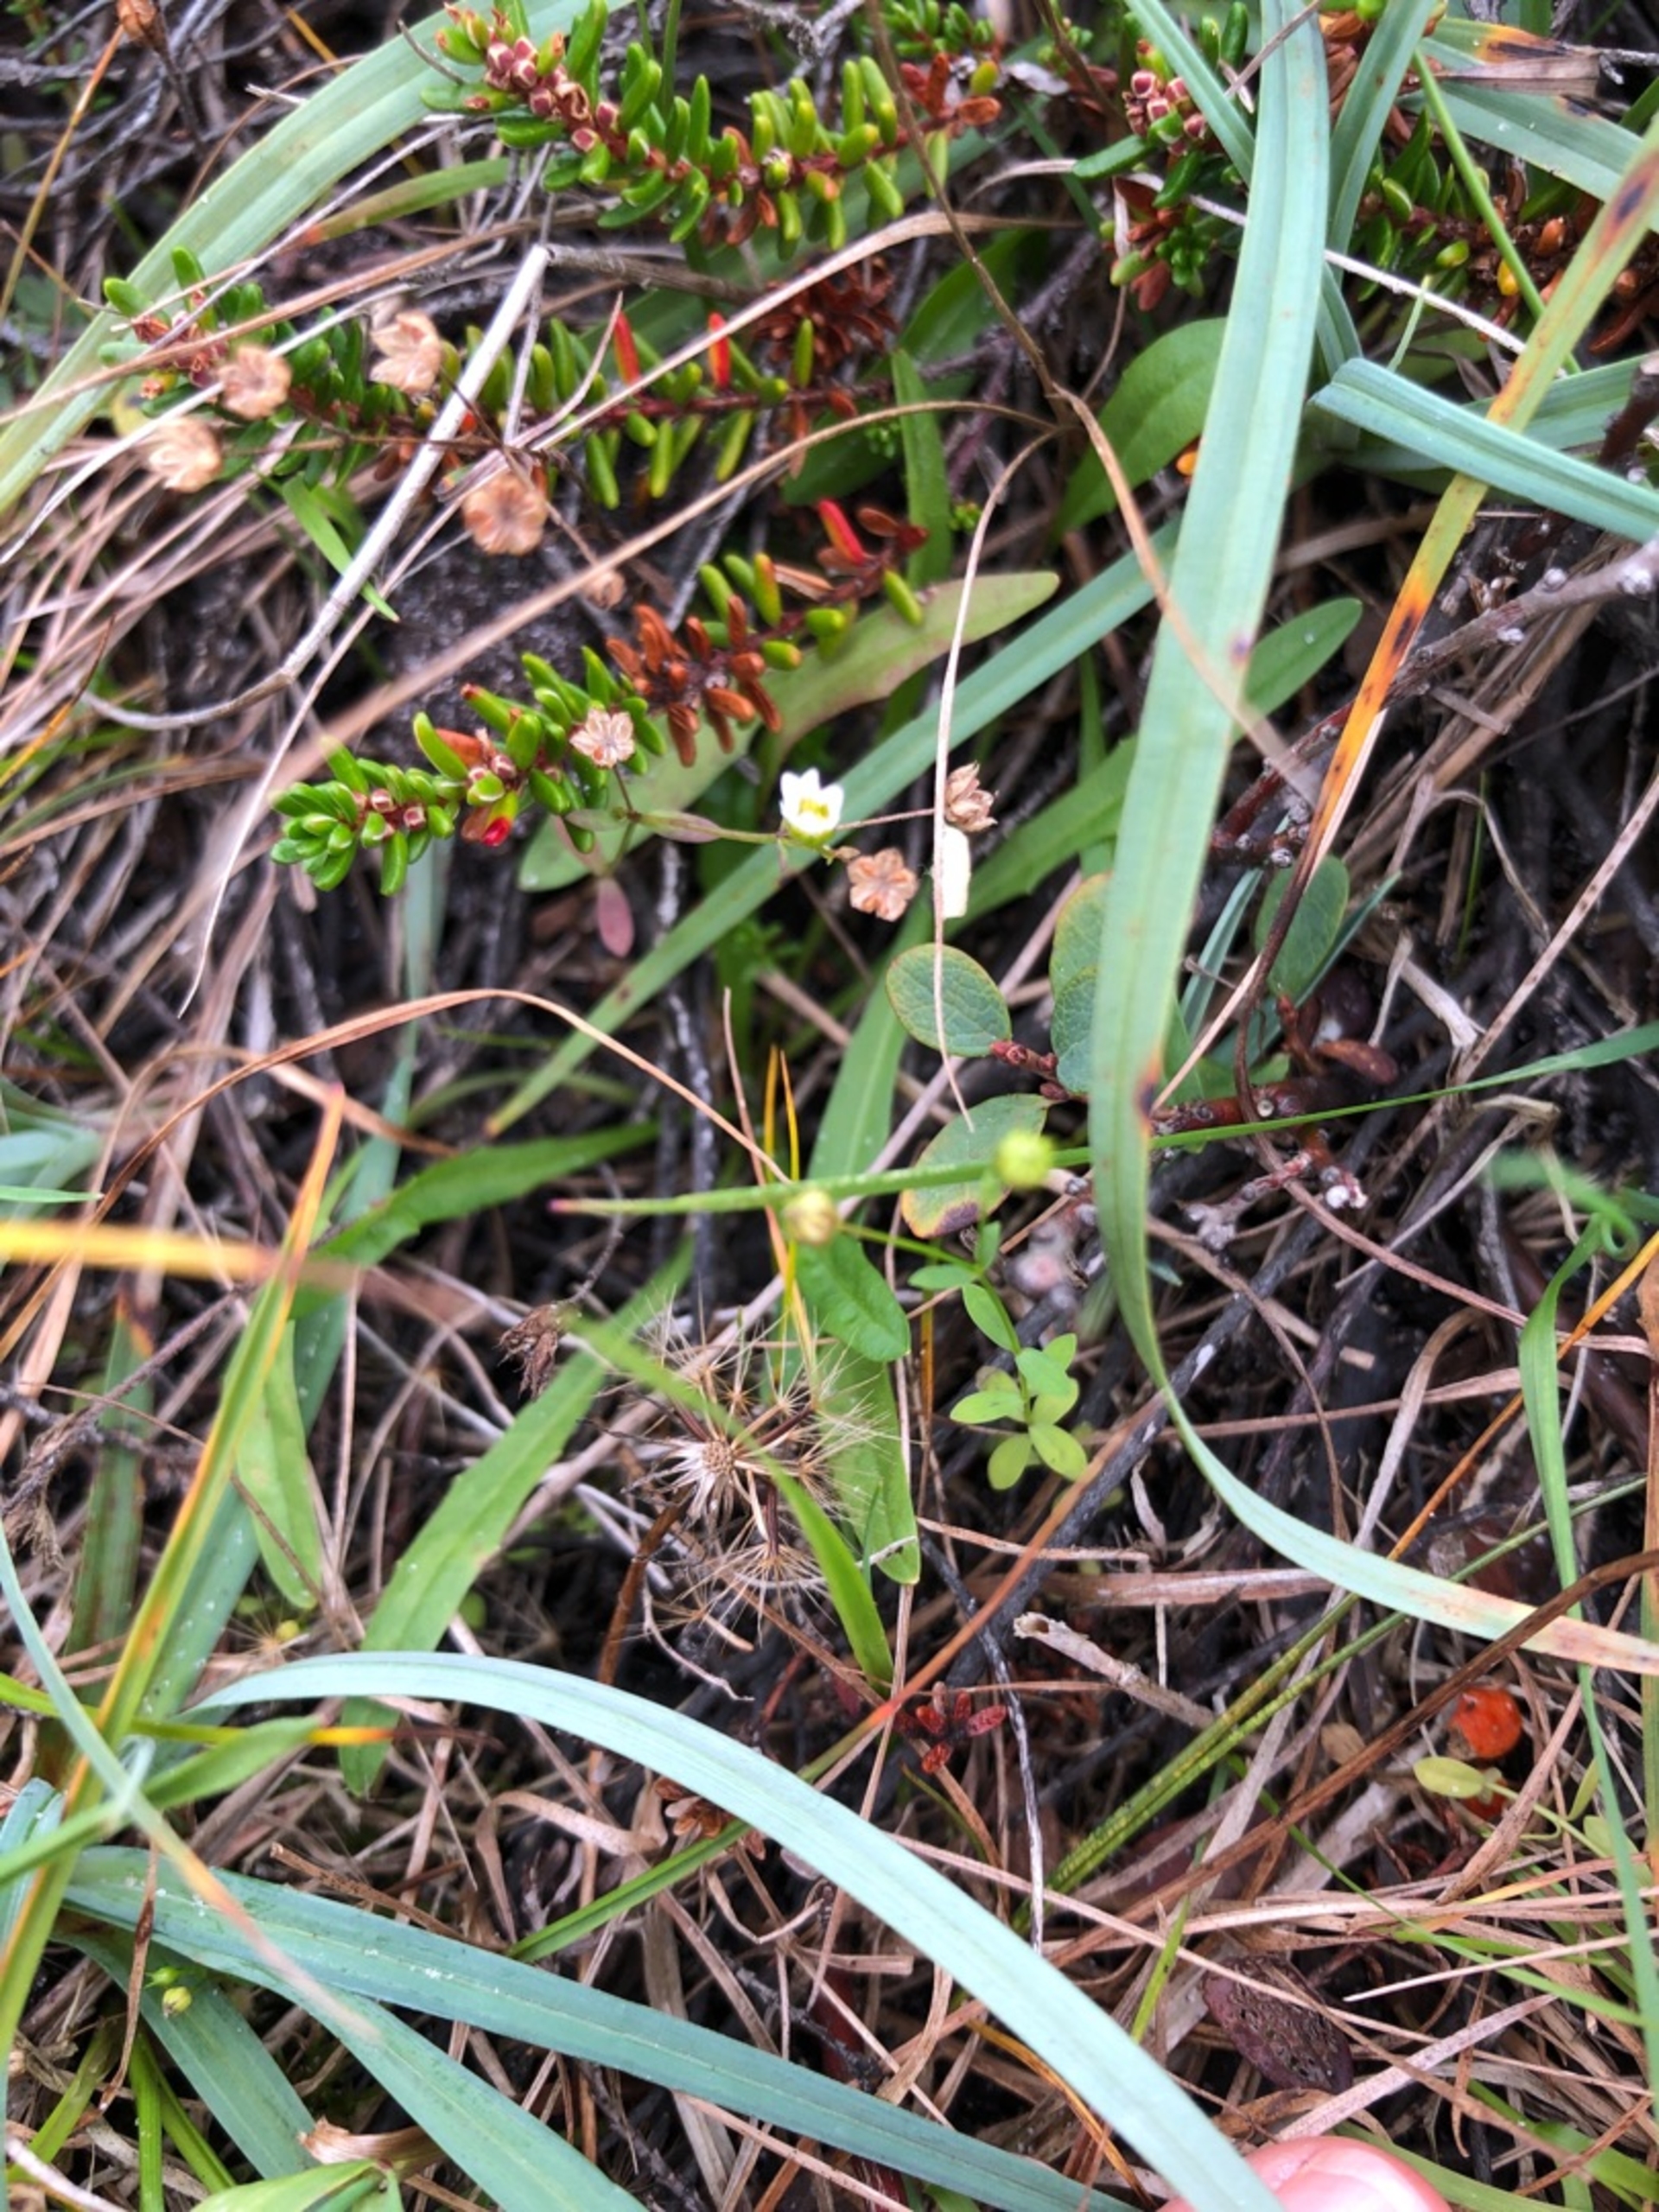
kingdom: Plantae
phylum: Tracheophyta
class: Magnoliopsida
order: Malpighiales
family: Linaceae
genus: Linum
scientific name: Linum catharticum
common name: Vild hør
